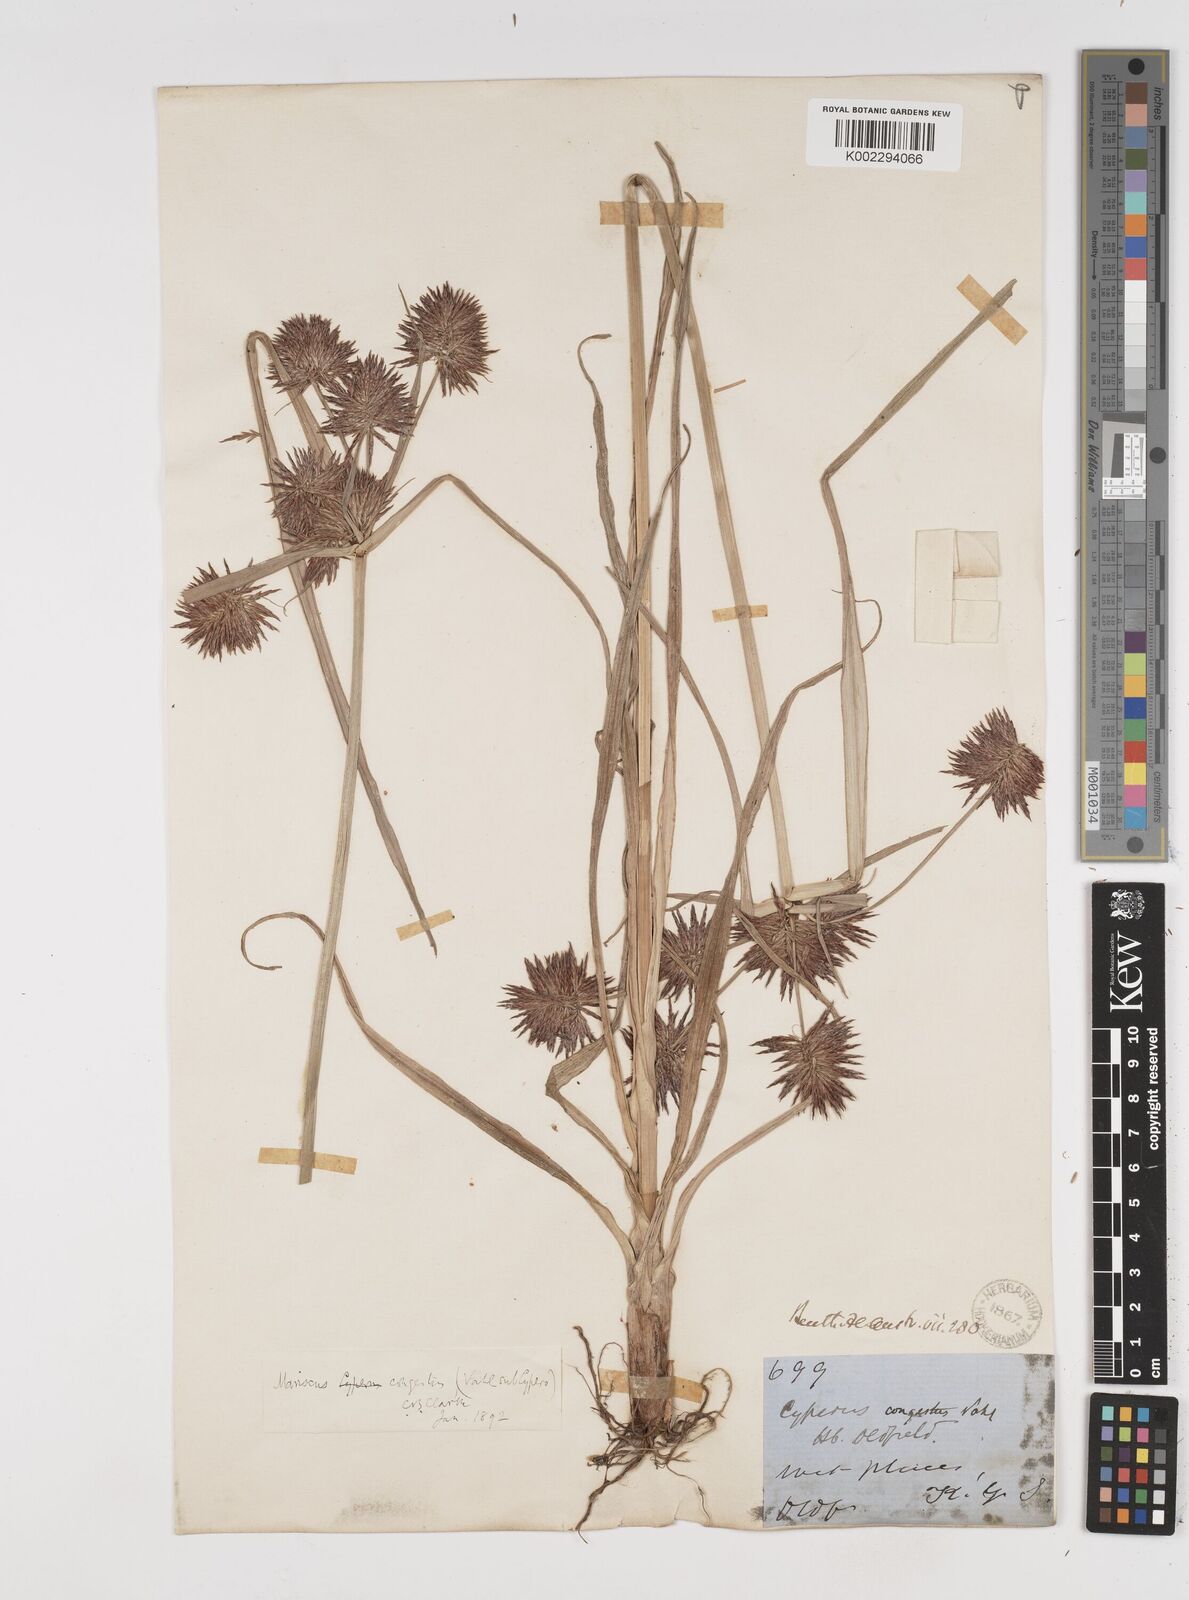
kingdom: Plantae
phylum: Tracheophyta
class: Liliopsida
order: Poales
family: Cyperaceae
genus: Cyperus
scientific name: Cyperus congestus
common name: Dense flat sedge
